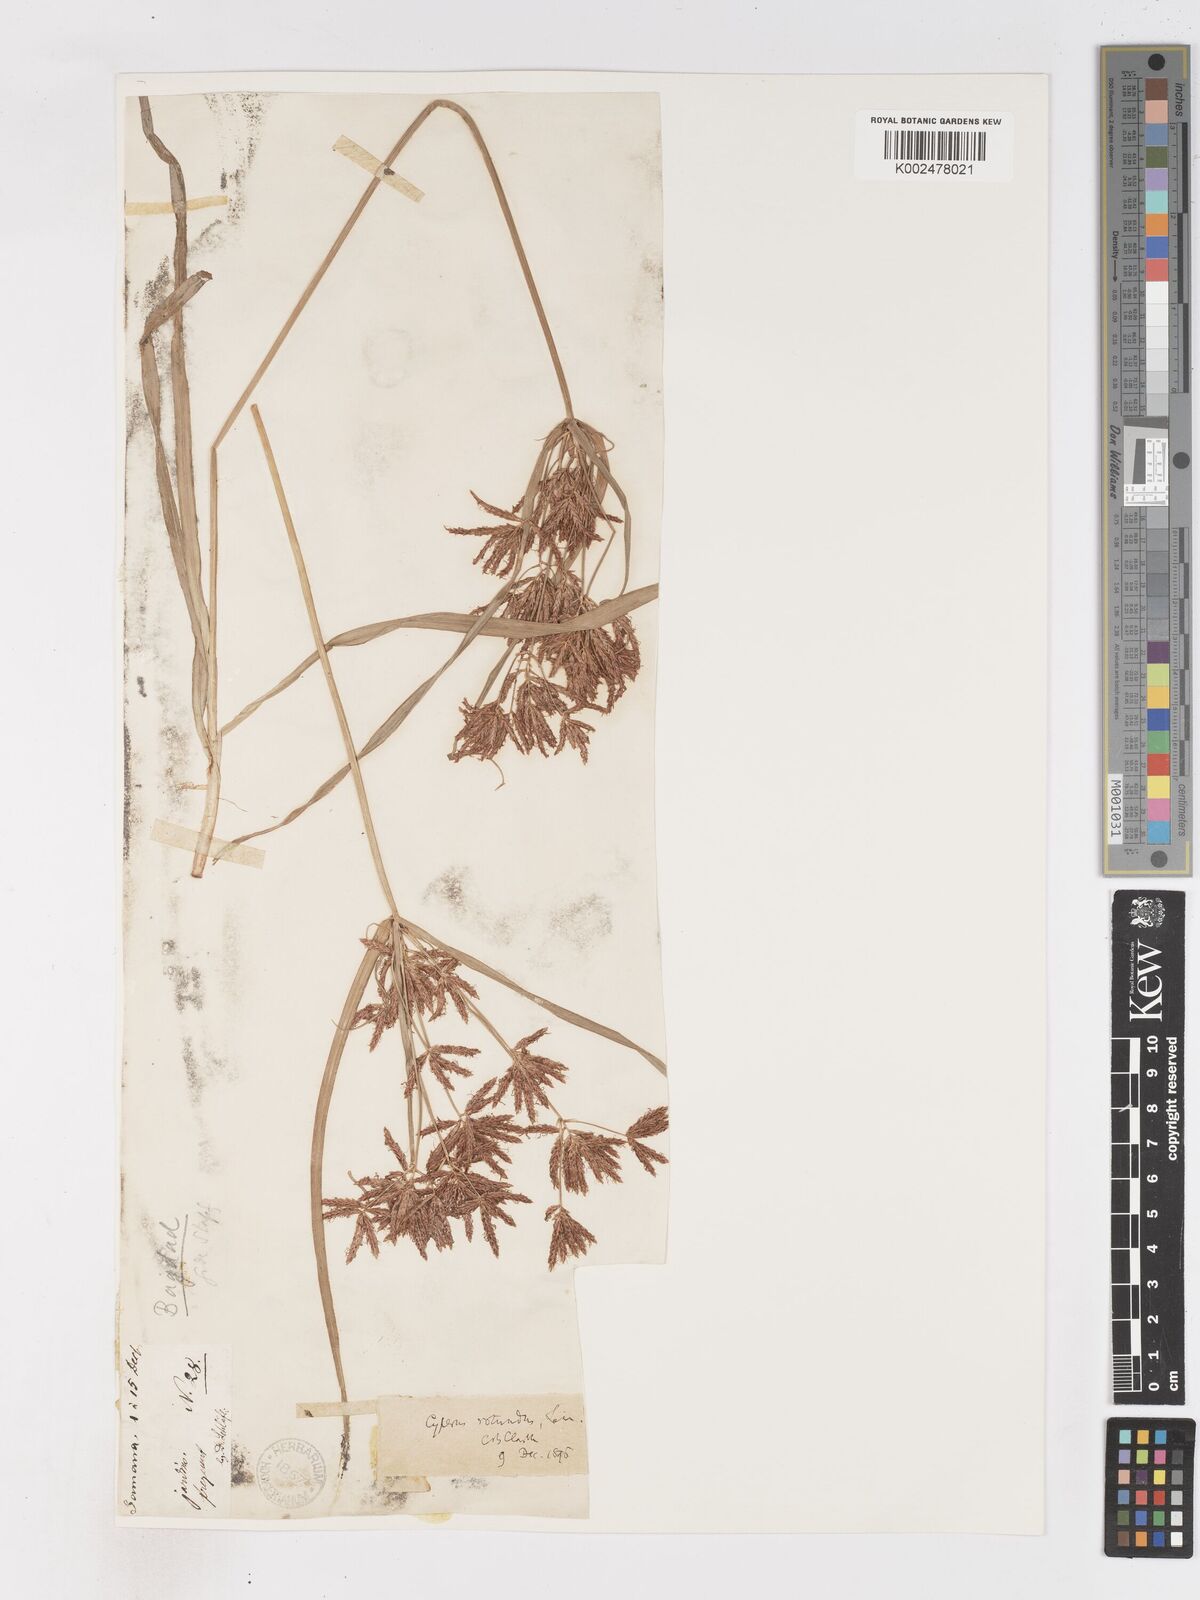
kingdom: Plantae
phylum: Tracheophyta
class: Liliopsida
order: Poales
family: Cyperaceae
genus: Cyperus
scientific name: Cyperus rotundus
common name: Nutgrass
